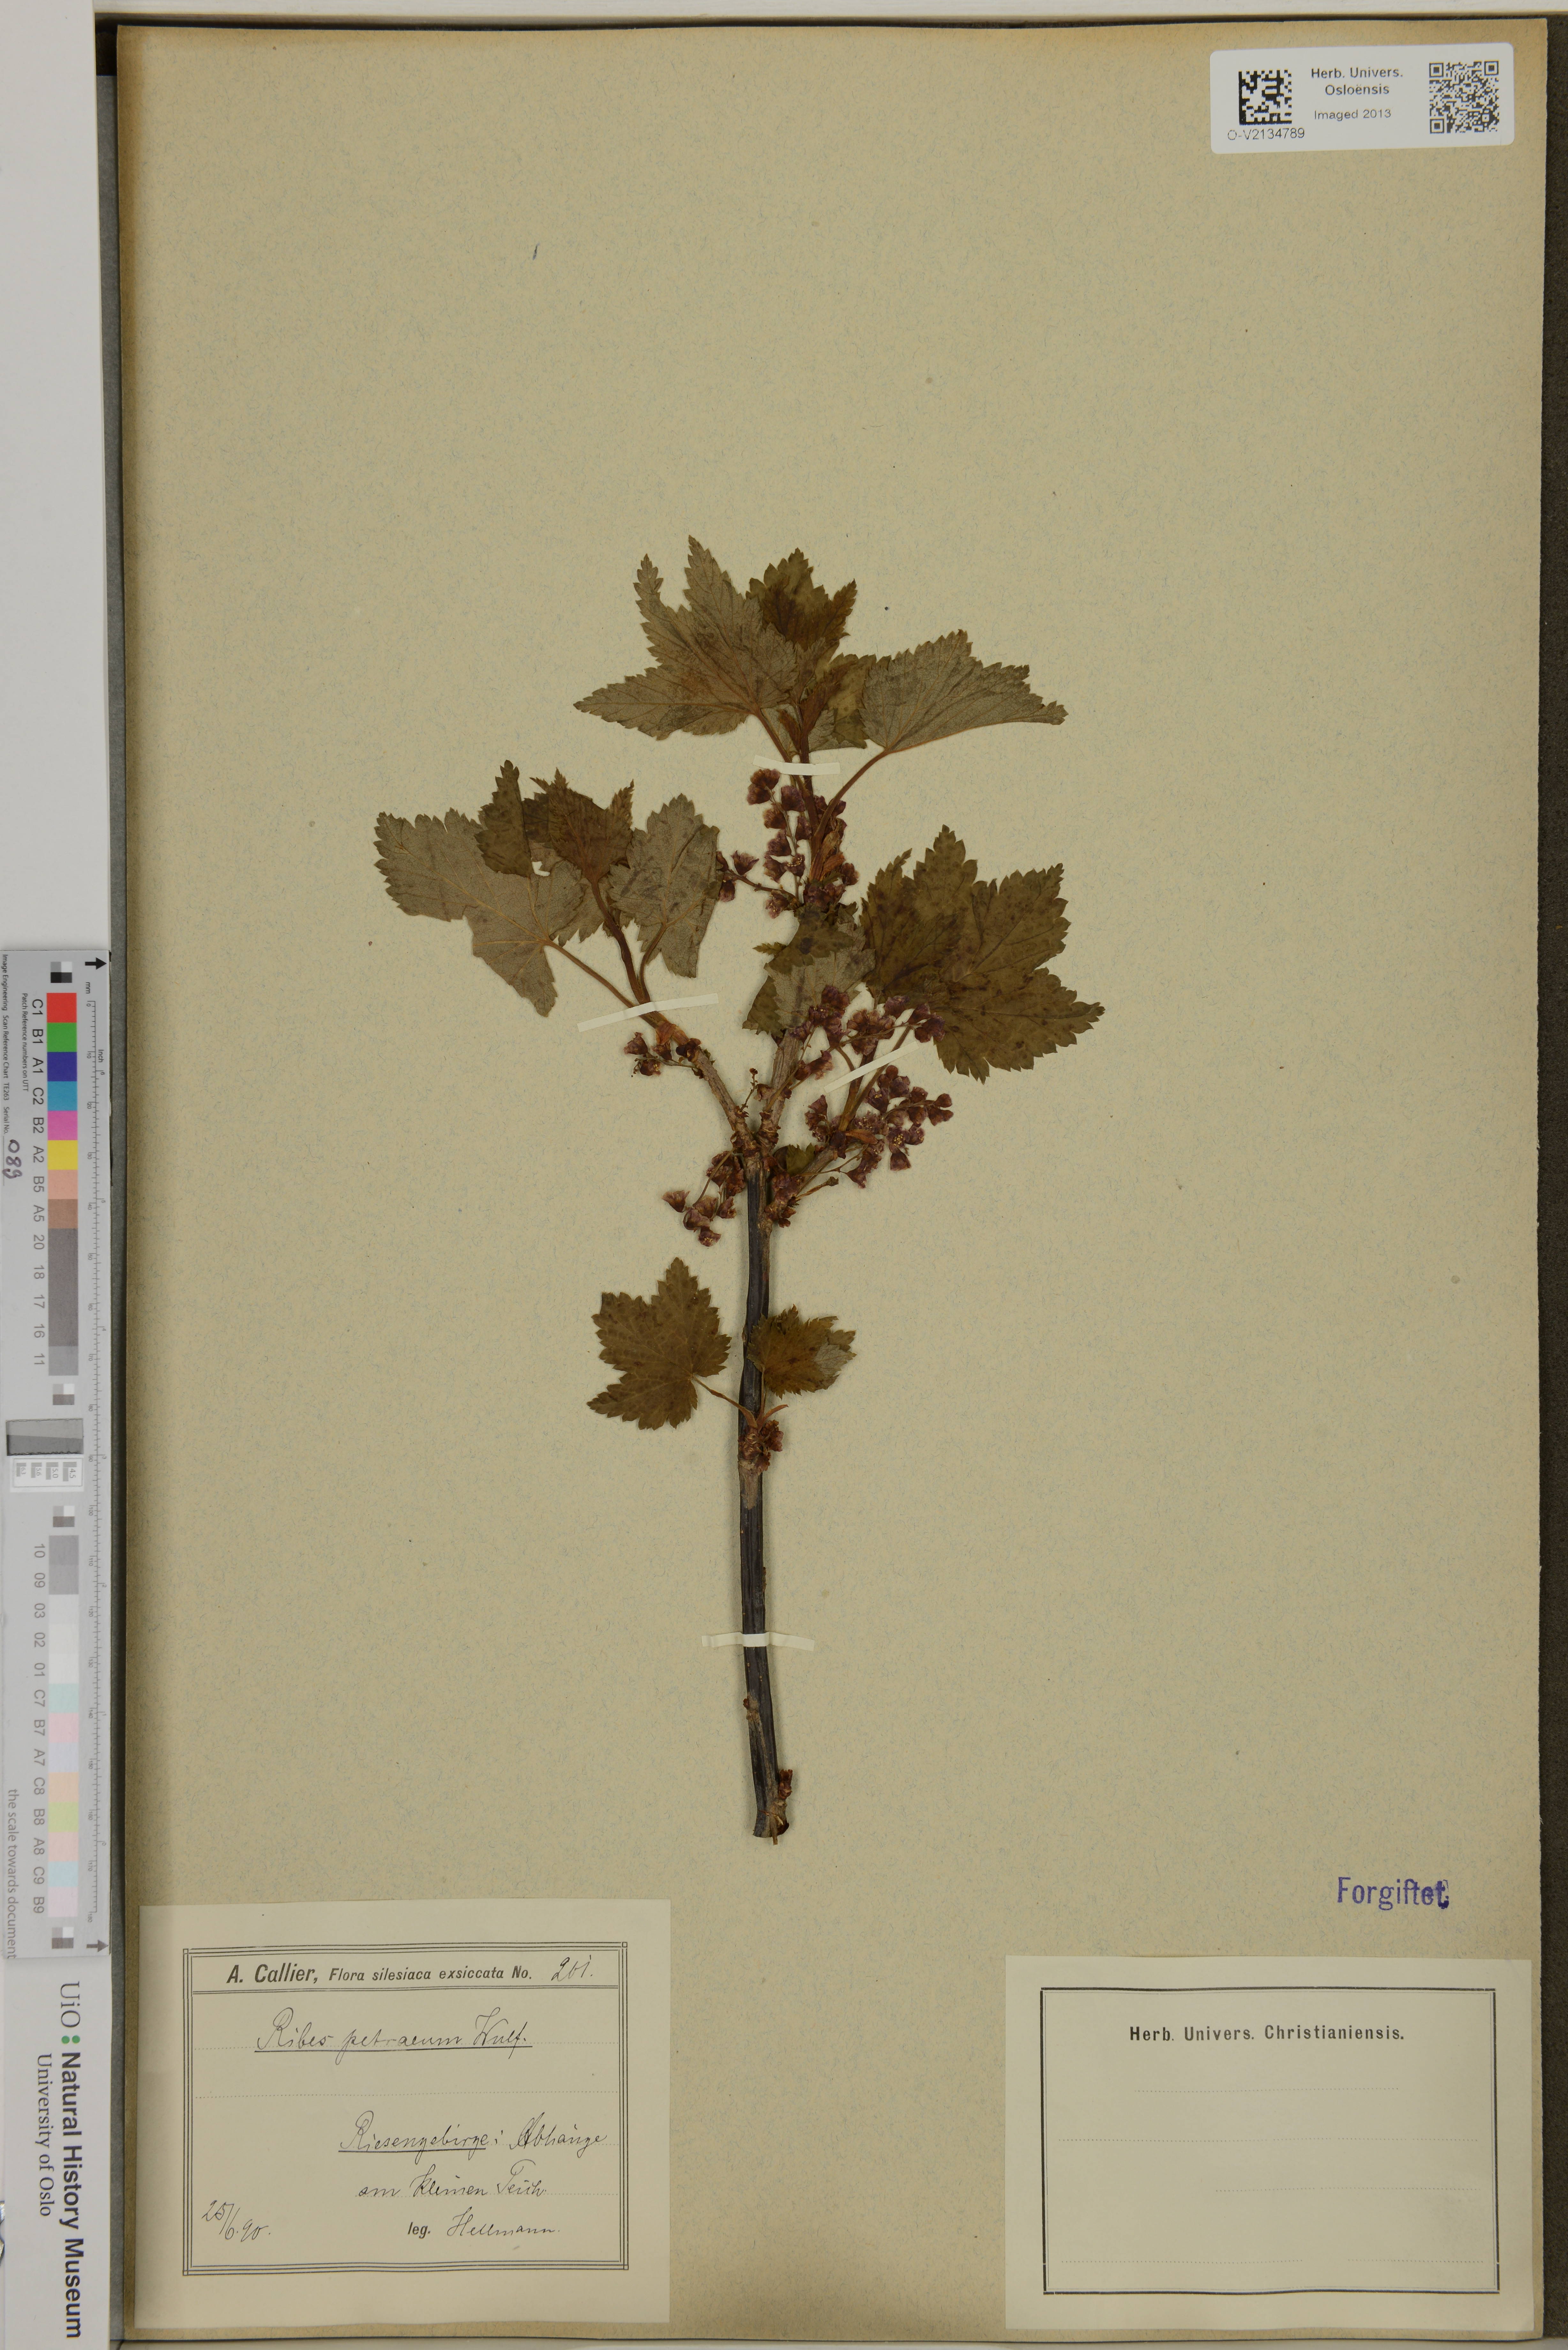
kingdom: Plantae
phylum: Tracheophyta
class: Magnoliopsida
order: Saxifragales
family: Grossulariaceae
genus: Ribes
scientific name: Ribes petraeum
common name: Rock currant
